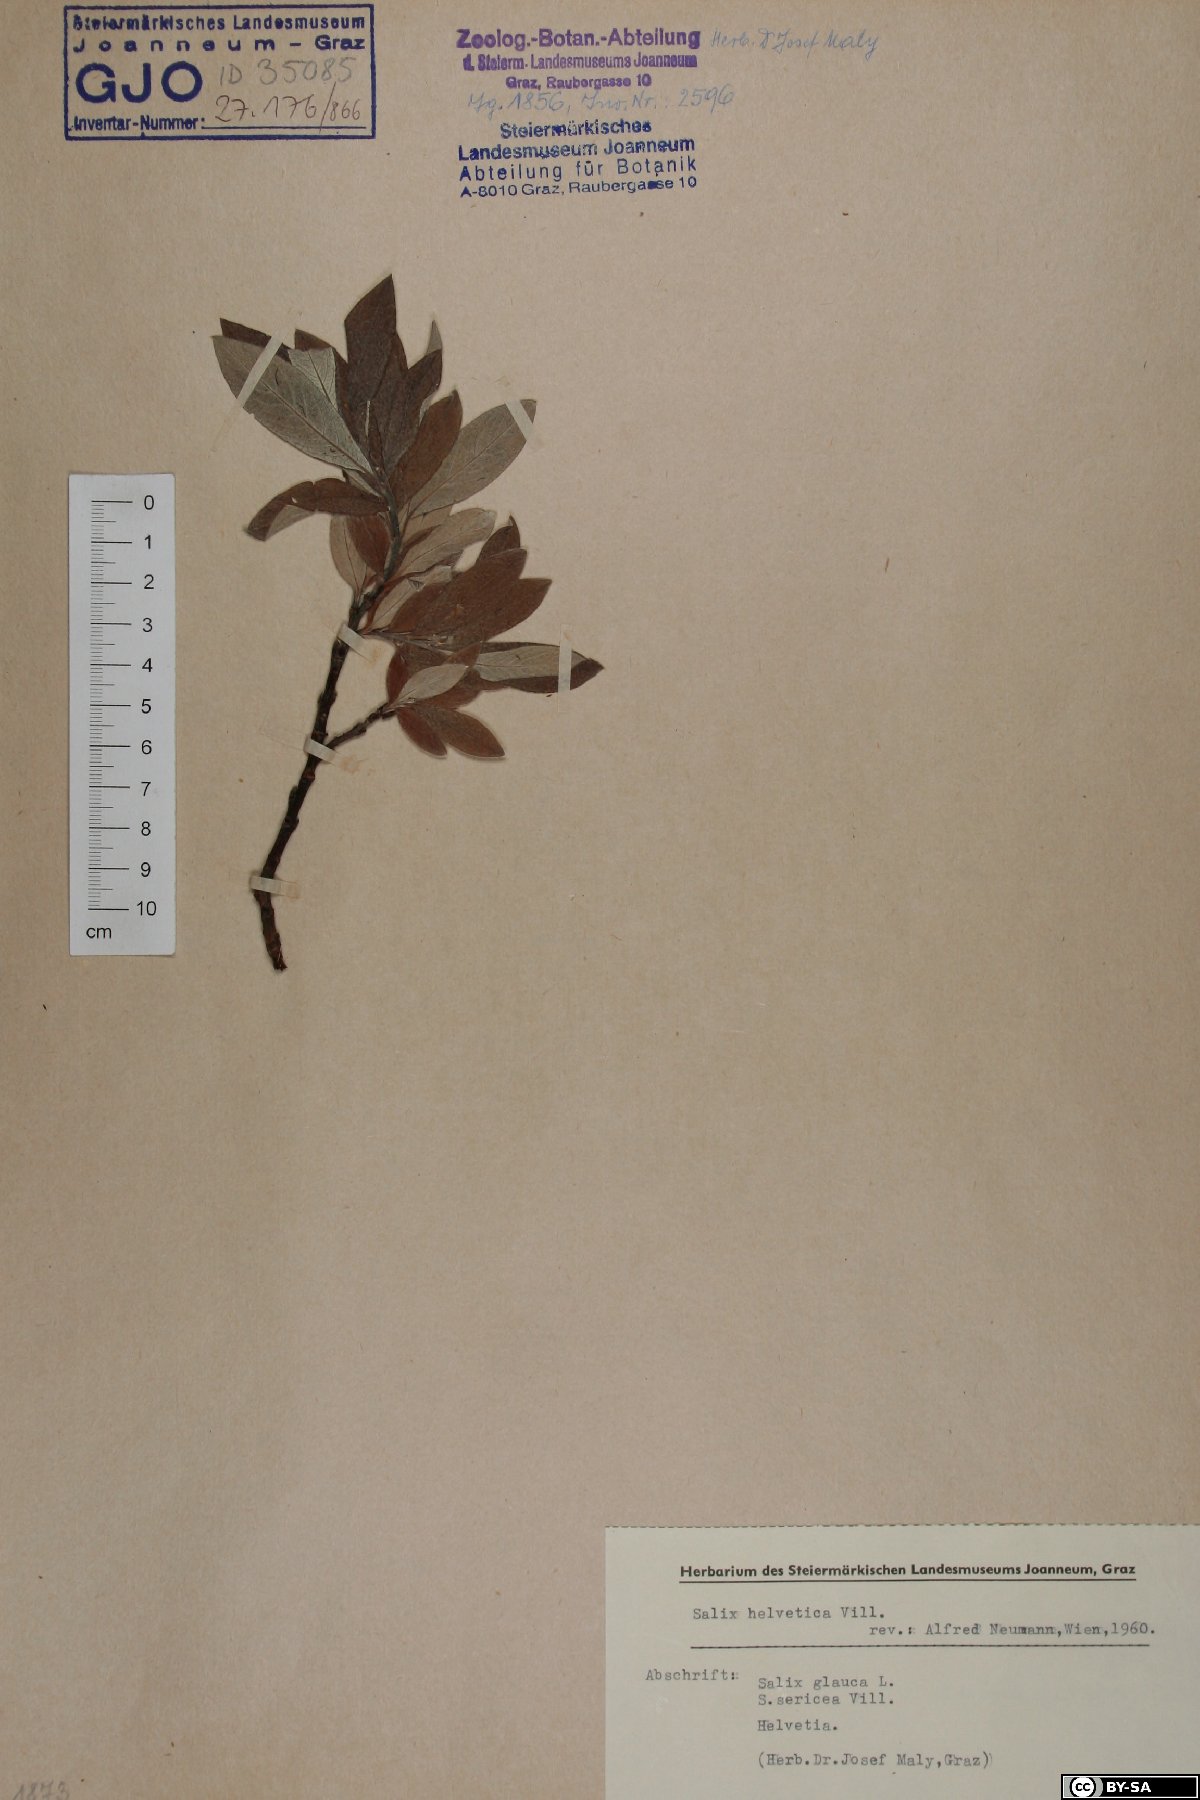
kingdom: Plantae
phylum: Tracheophyta
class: Magnoliopsida
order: Malpighiales
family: Salicaceae
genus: Salix
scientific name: Salix helvetica
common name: Swiss willow
